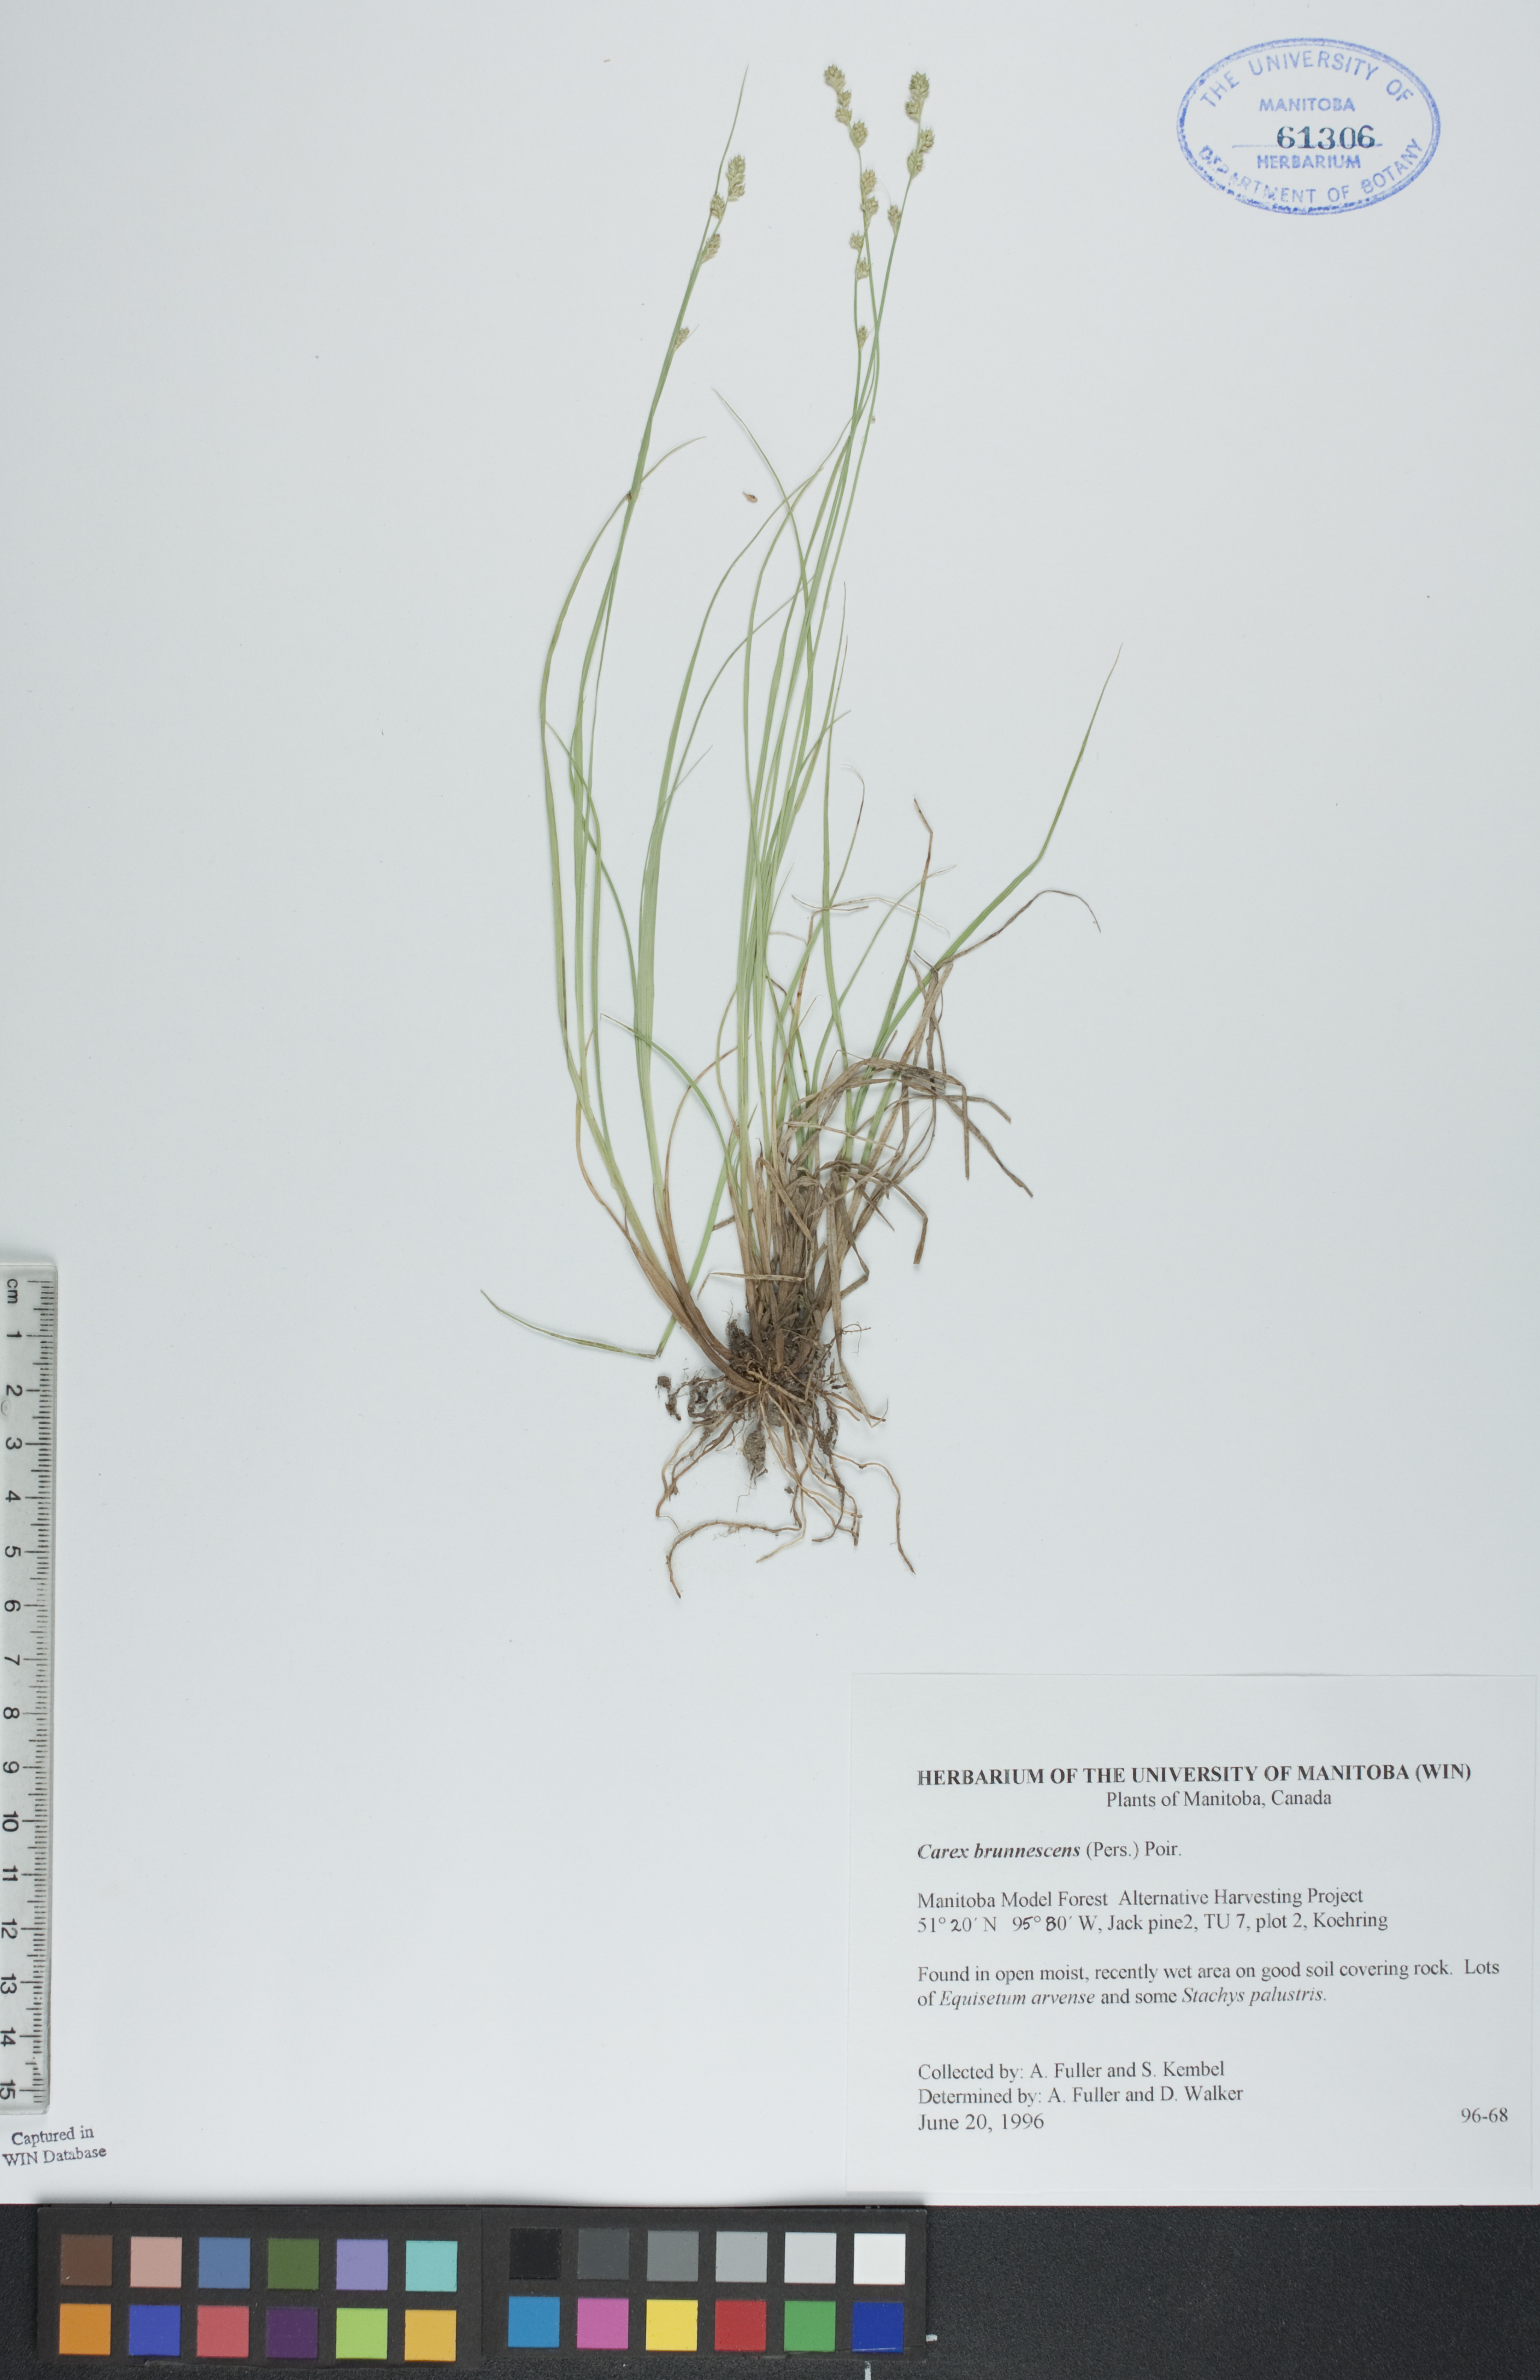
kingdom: Plantae
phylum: Tracheophyta
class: Liliopsida
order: Poales
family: Cyperaceae
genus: Carex
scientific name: Carex brunnescens
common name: Brown sedge
